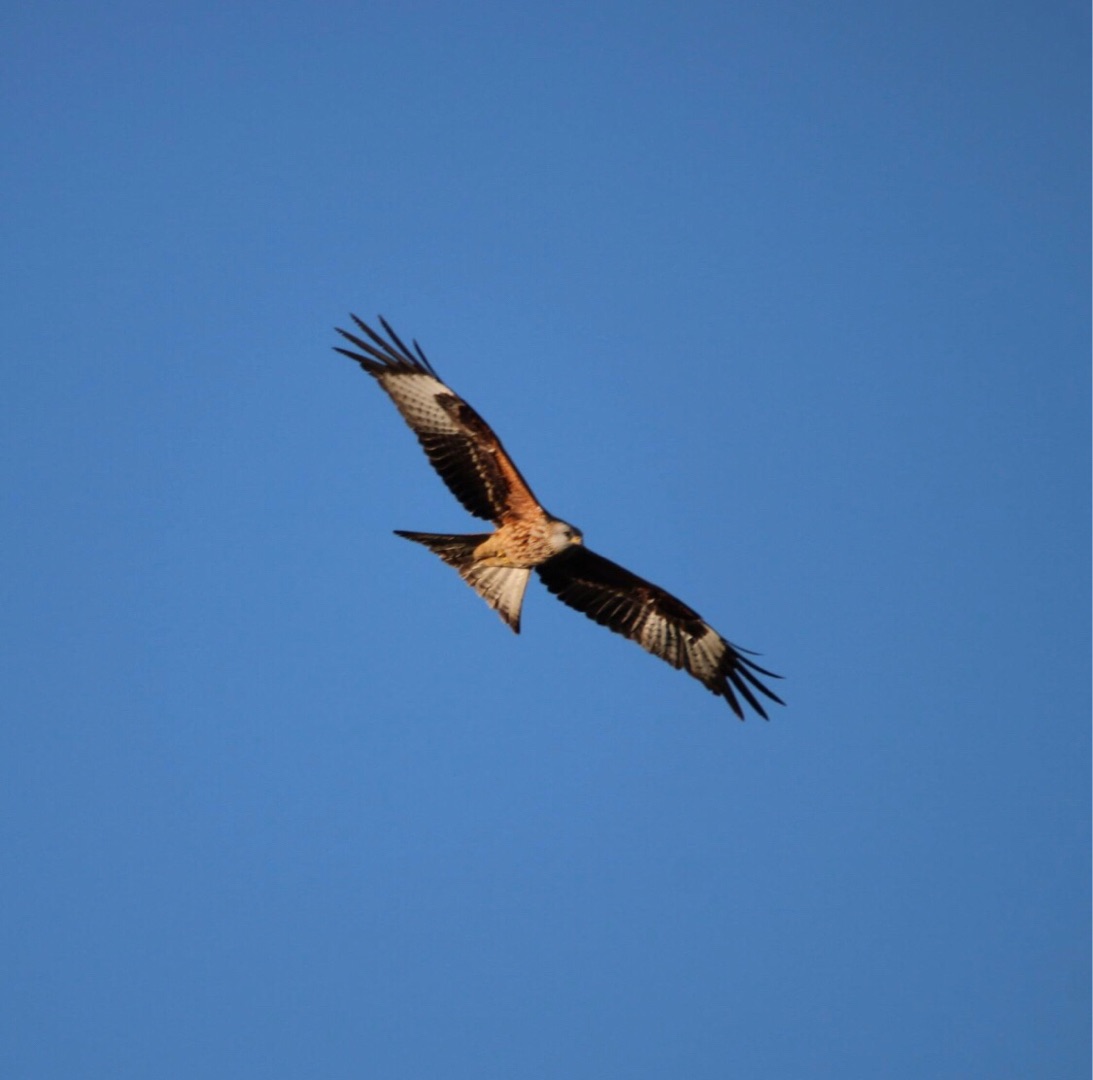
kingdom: Animalia
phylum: Chordata
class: Aves
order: Accipitriformes
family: Accipitridae
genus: Milvus
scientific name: Milvus milvus
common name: Rød glente
